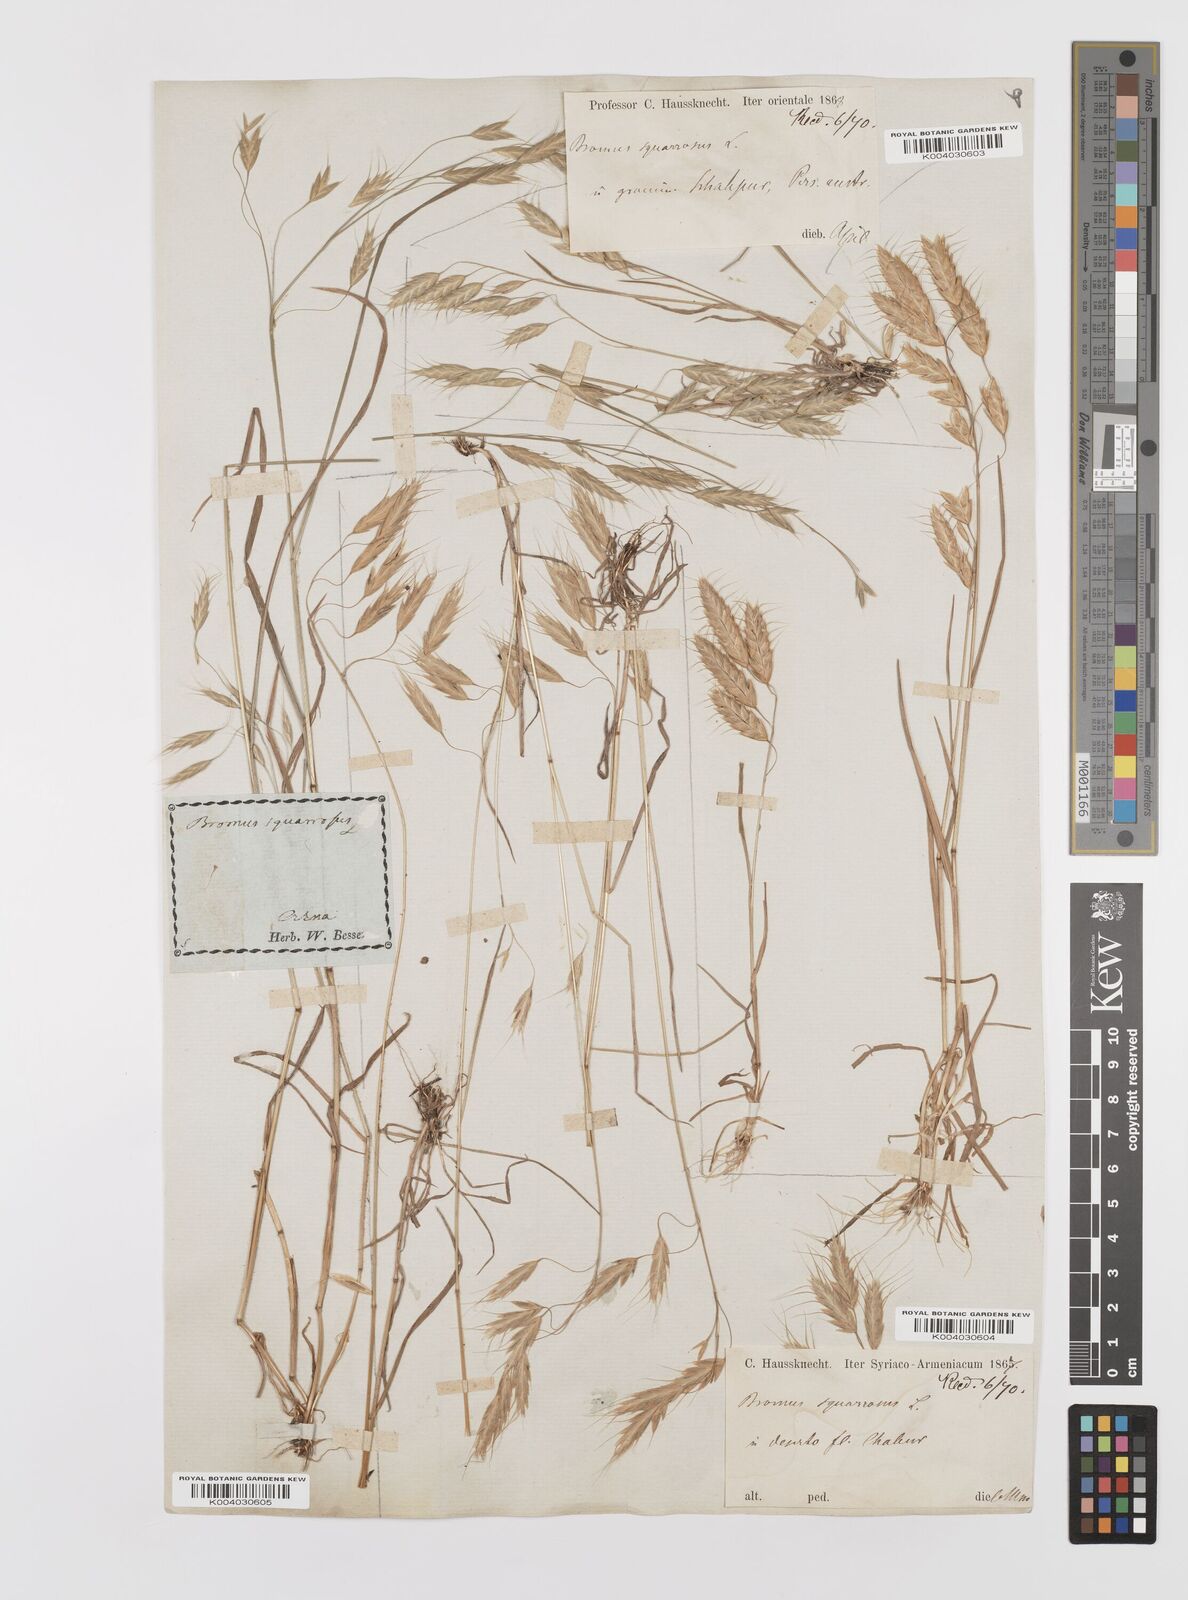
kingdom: Plantae
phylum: Tracheophyta
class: Liliopsida
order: Poales
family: Poaceae
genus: Bromus
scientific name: Bromus squarrosus
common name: Corn brome
